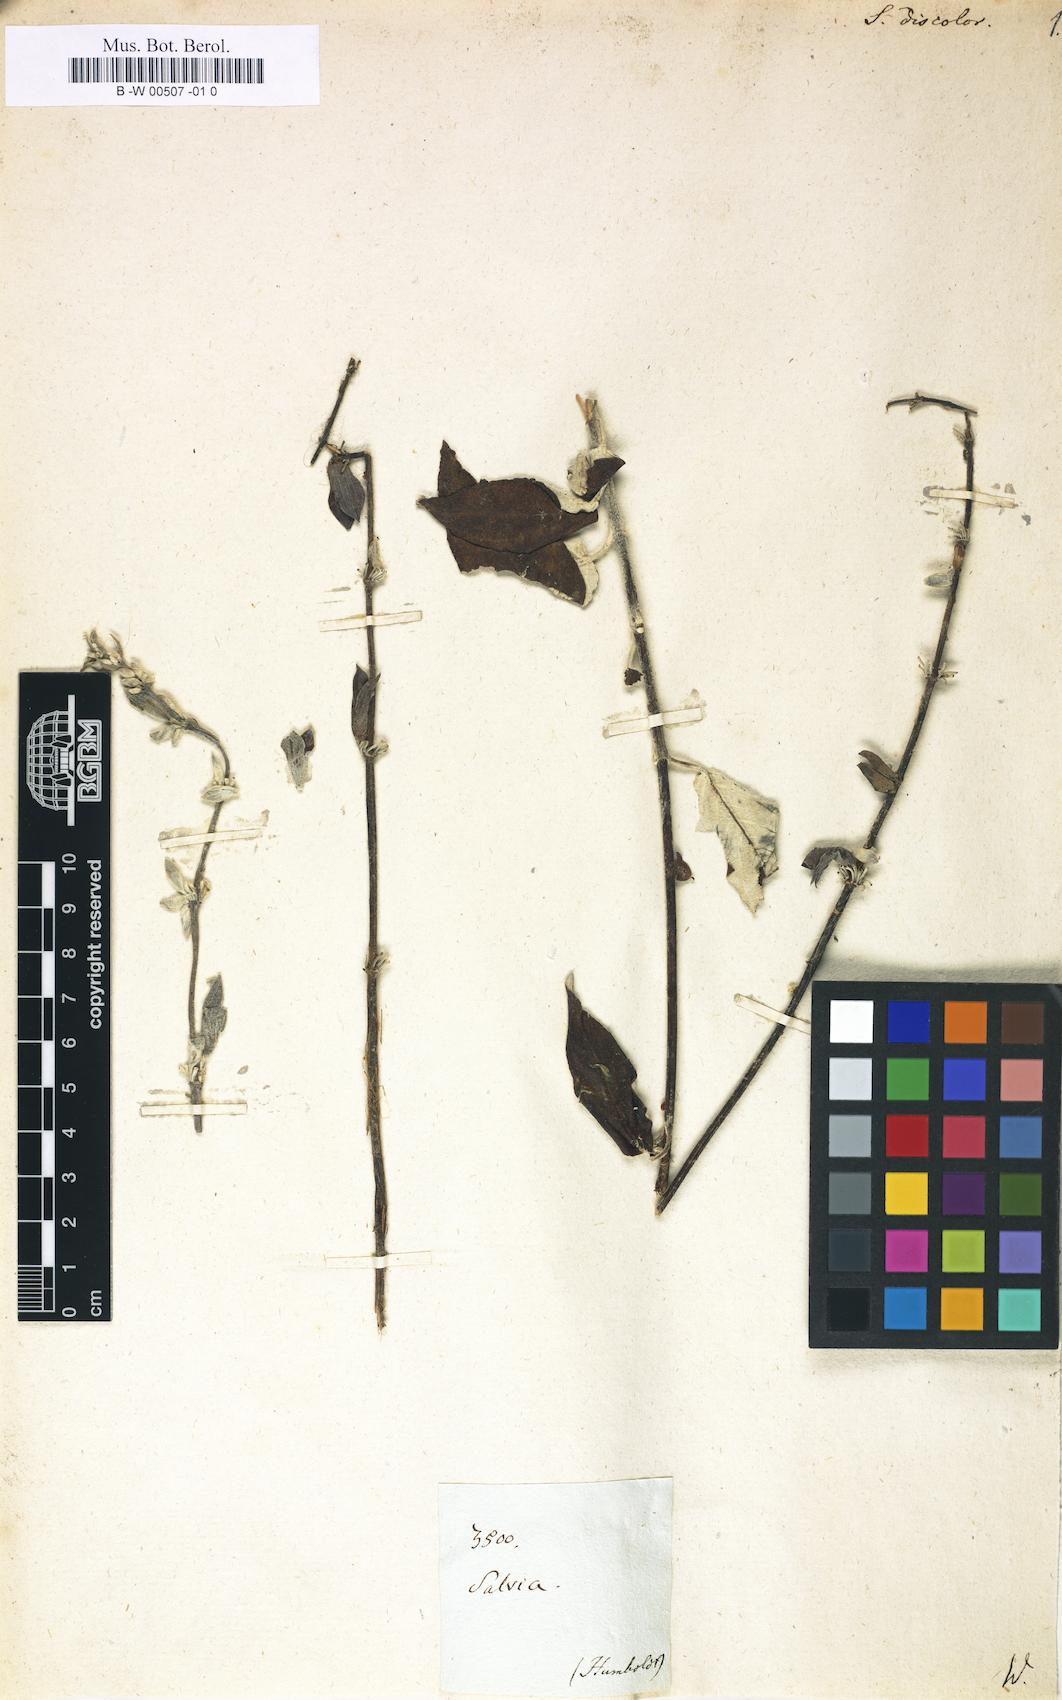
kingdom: Plantae
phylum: Tracheophyta
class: Magnoliopsida
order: Lamiales
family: Lamiaceae
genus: Salvia
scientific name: Salvia leucantha
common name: Mexican bush sage
